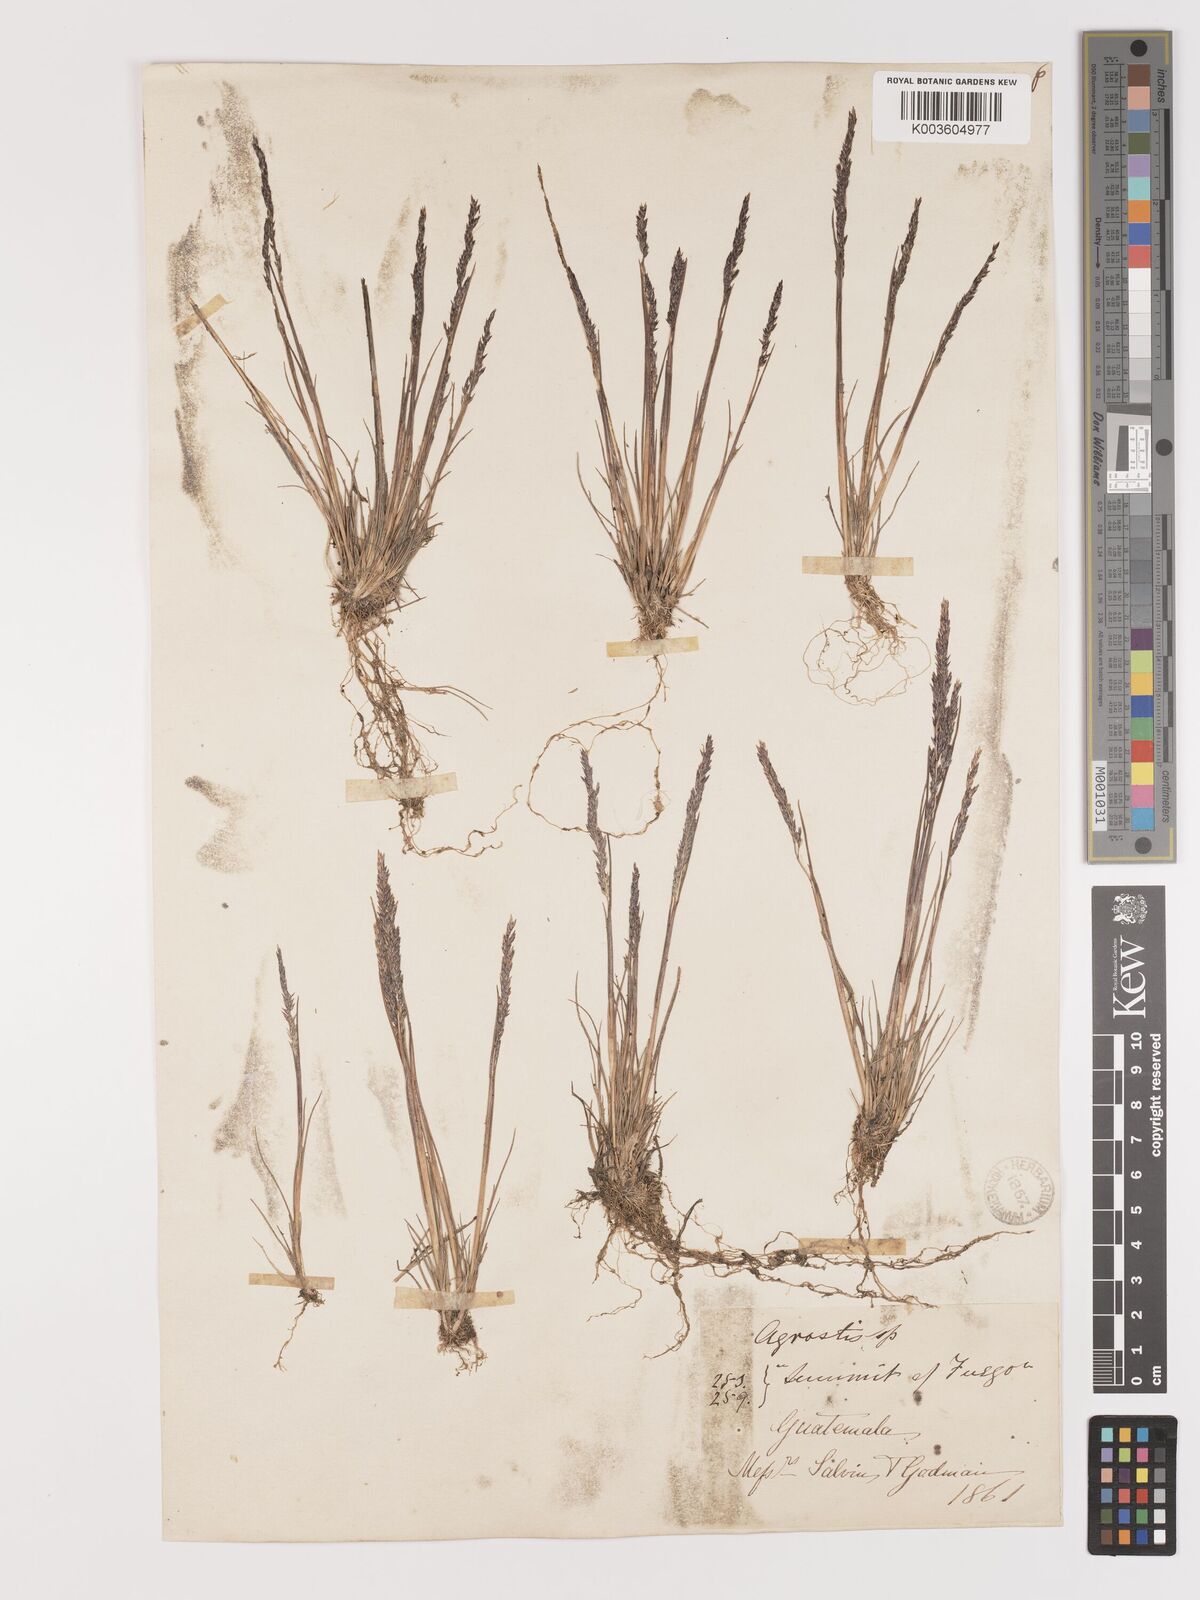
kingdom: Plantae
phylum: Tracheophyta
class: Liliopsida
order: Poales
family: Poaceae
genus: Agrostis
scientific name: Agrostis tolucensis
